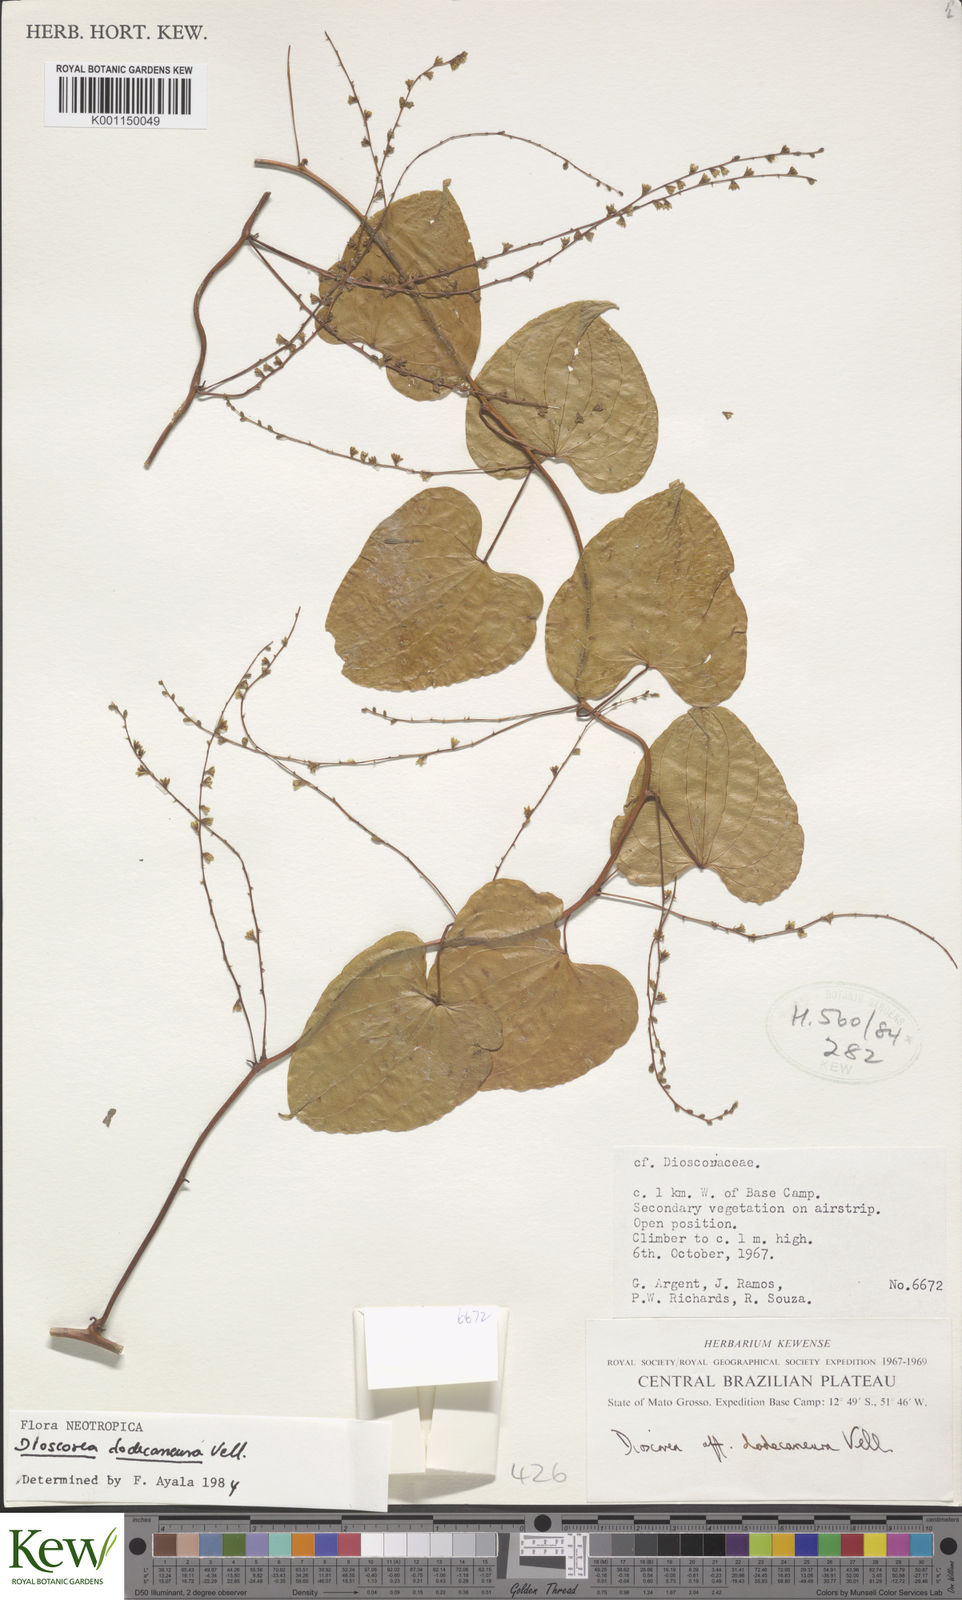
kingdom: Plantae
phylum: Tracheophyta
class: Liliopsida
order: Dioscoreales
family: Dioscoreaceae
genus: Dioscorea
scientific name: Dioscorea chondrocarpa
